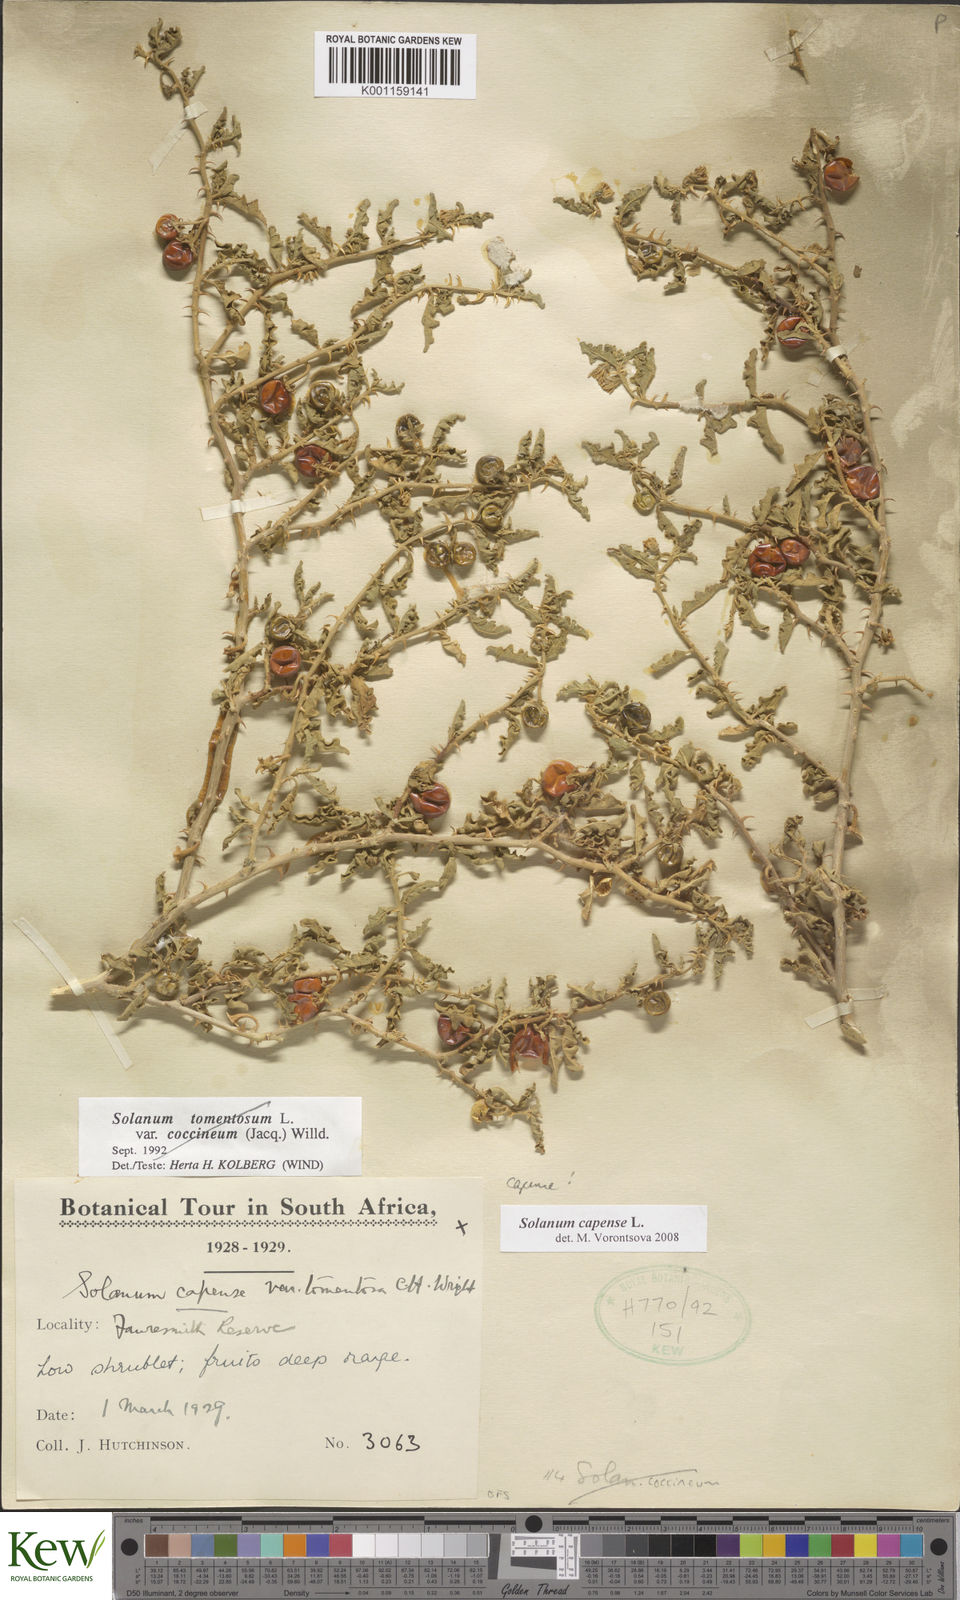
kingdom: Plantae
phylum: Tracheophyta
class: Magnoliopsida
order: Solanales
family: Solanaceae
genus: Solanum
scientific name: Solanum capense
